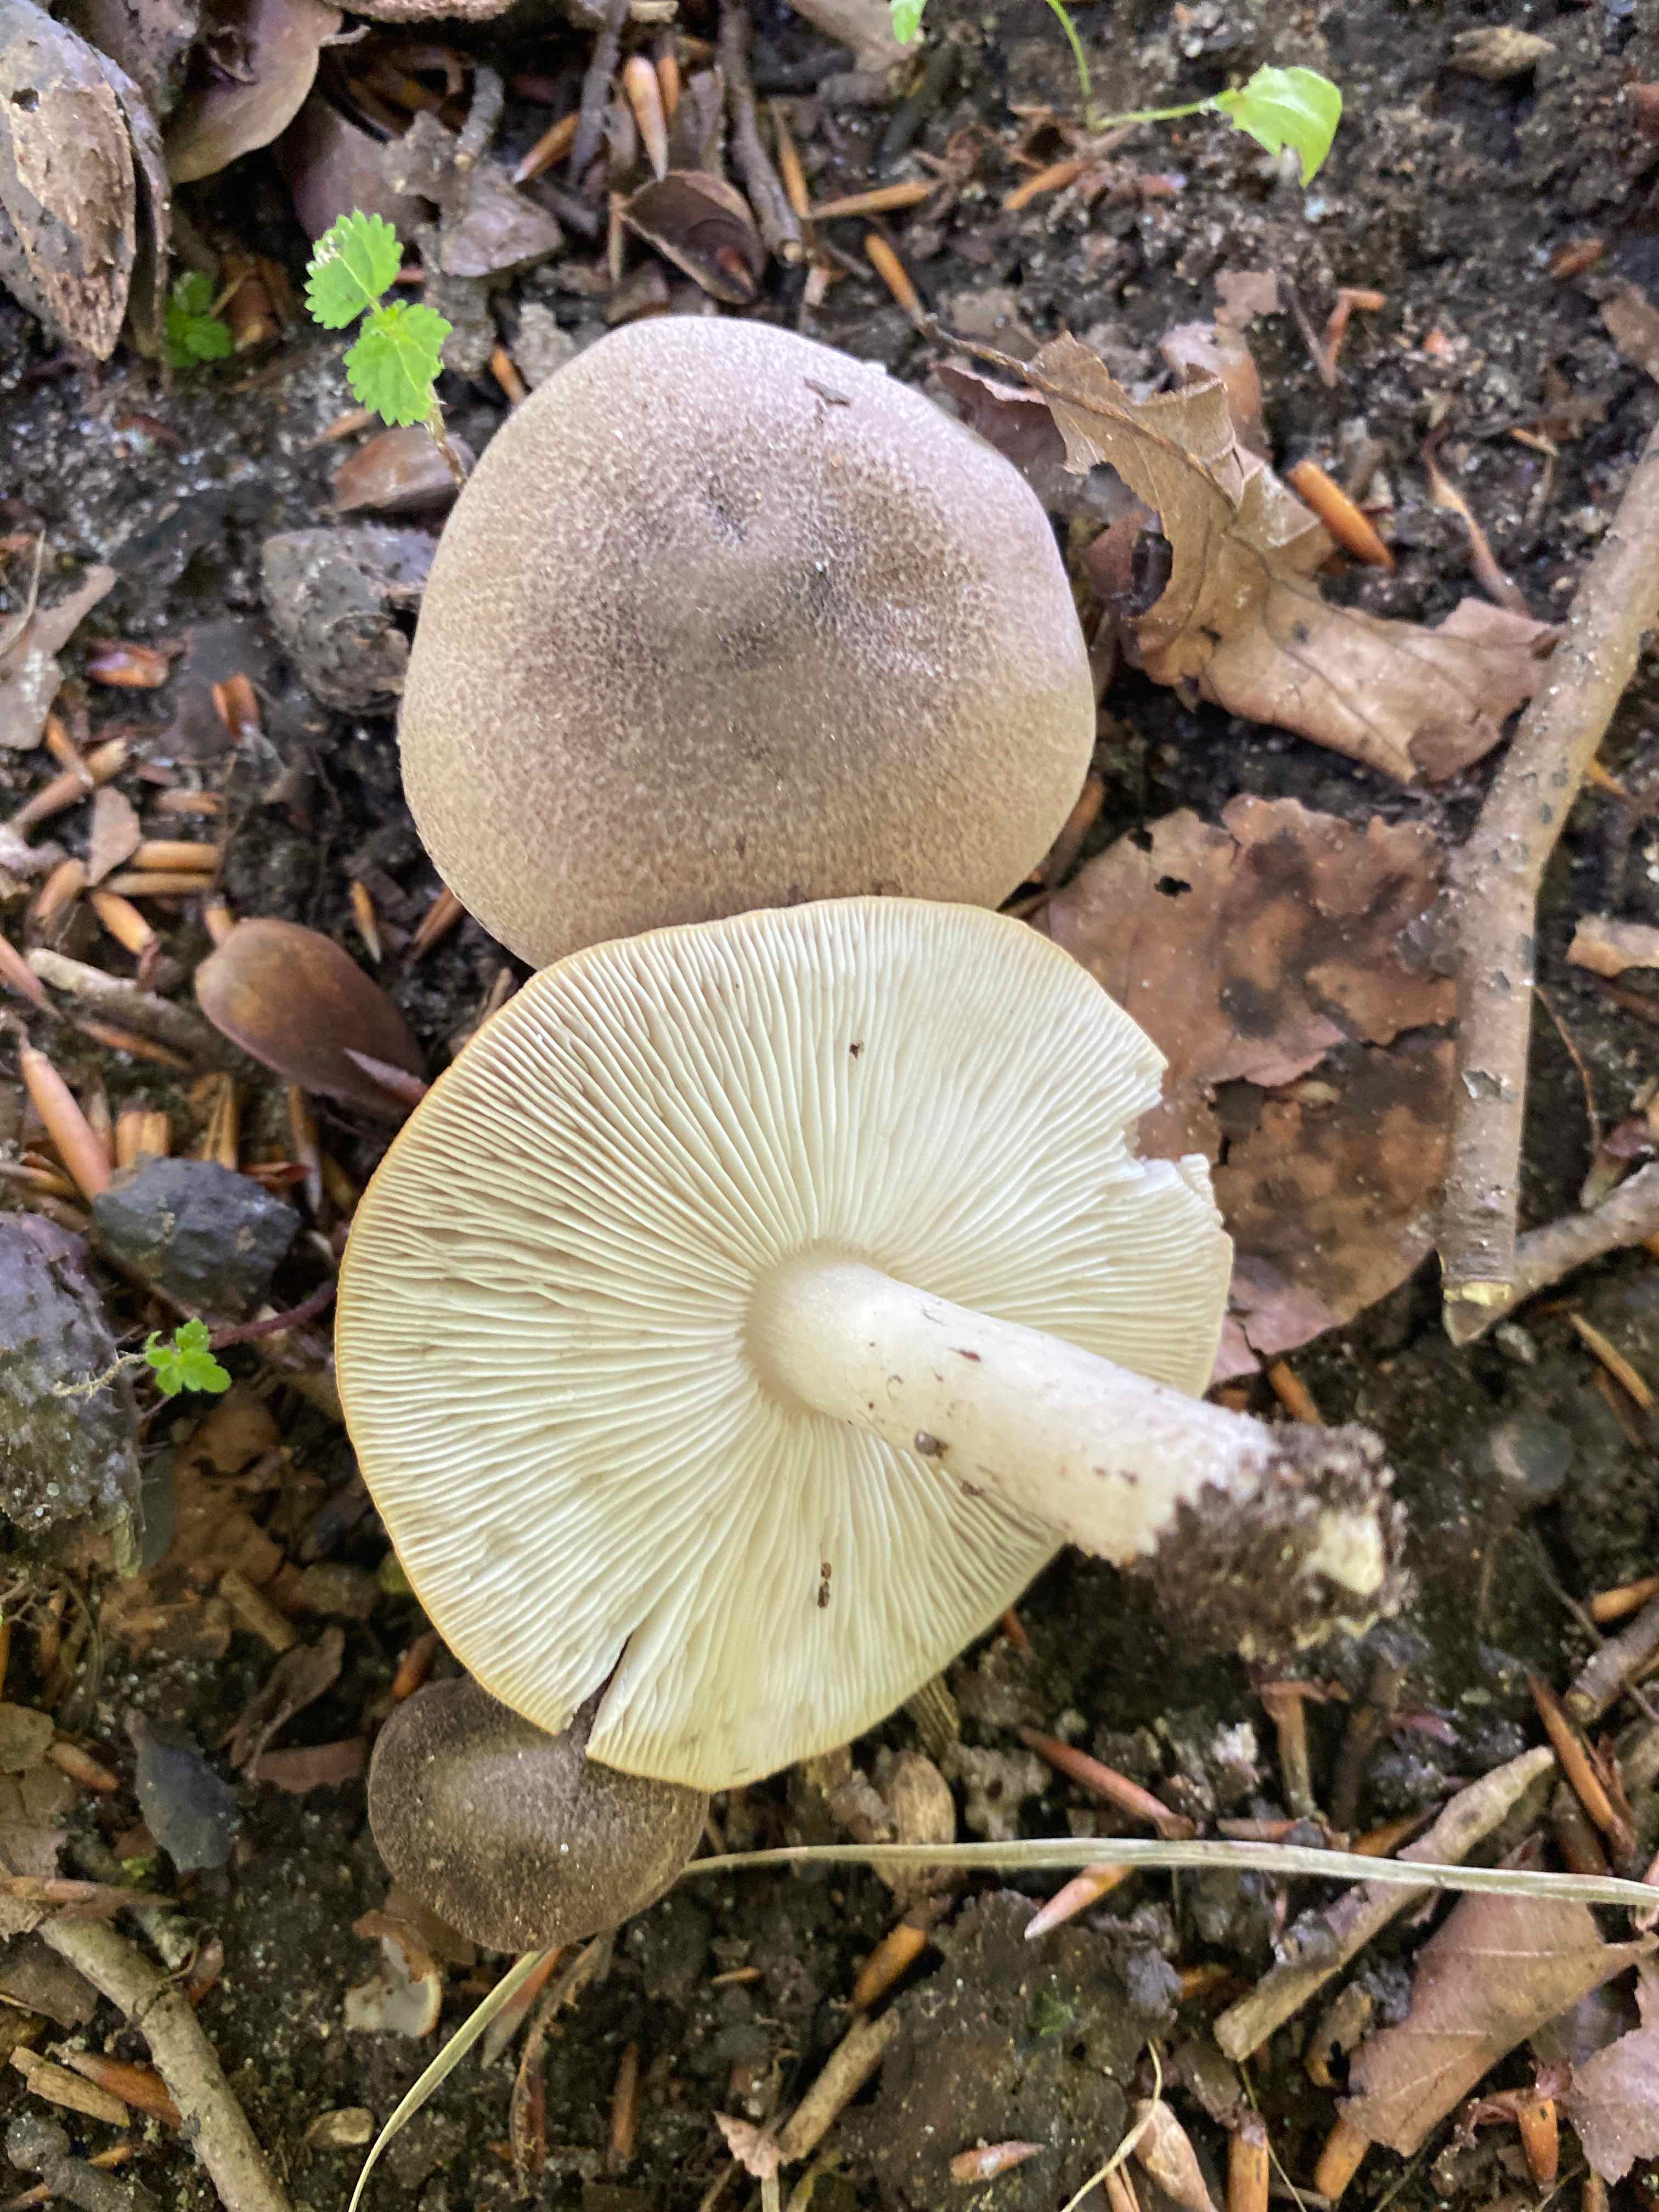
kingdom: Fungi
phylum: Basidiomycota
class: Agaricomycetes
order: Agaricales
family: Tricholomataceae
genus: Tricholoma
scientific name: Tricholoma scalpturatum
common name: gulplettet ridderhat
